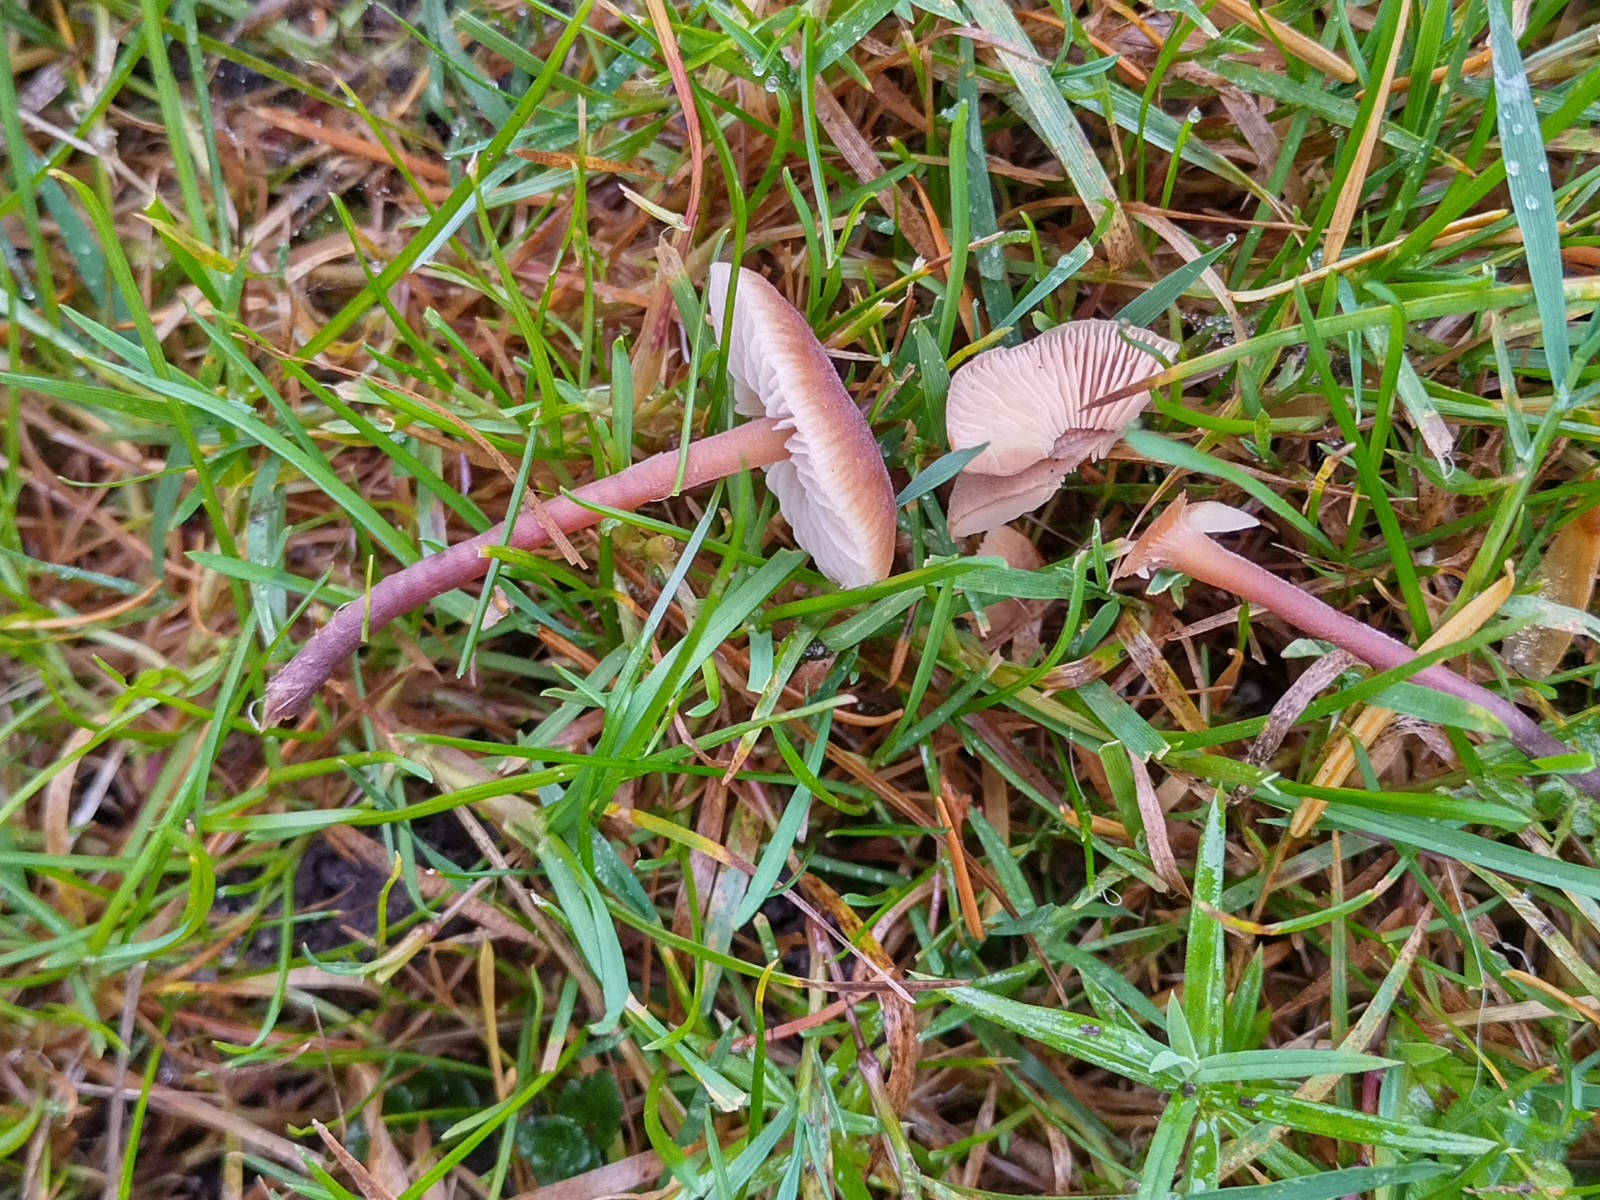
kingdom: Fungi
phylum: Basidiomycota
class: Agaricomycetes
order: Agaricales
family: Macrocystidiaceae
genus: Macrocystidia
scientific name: Macrocystidia cucumis
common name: agurkehat
